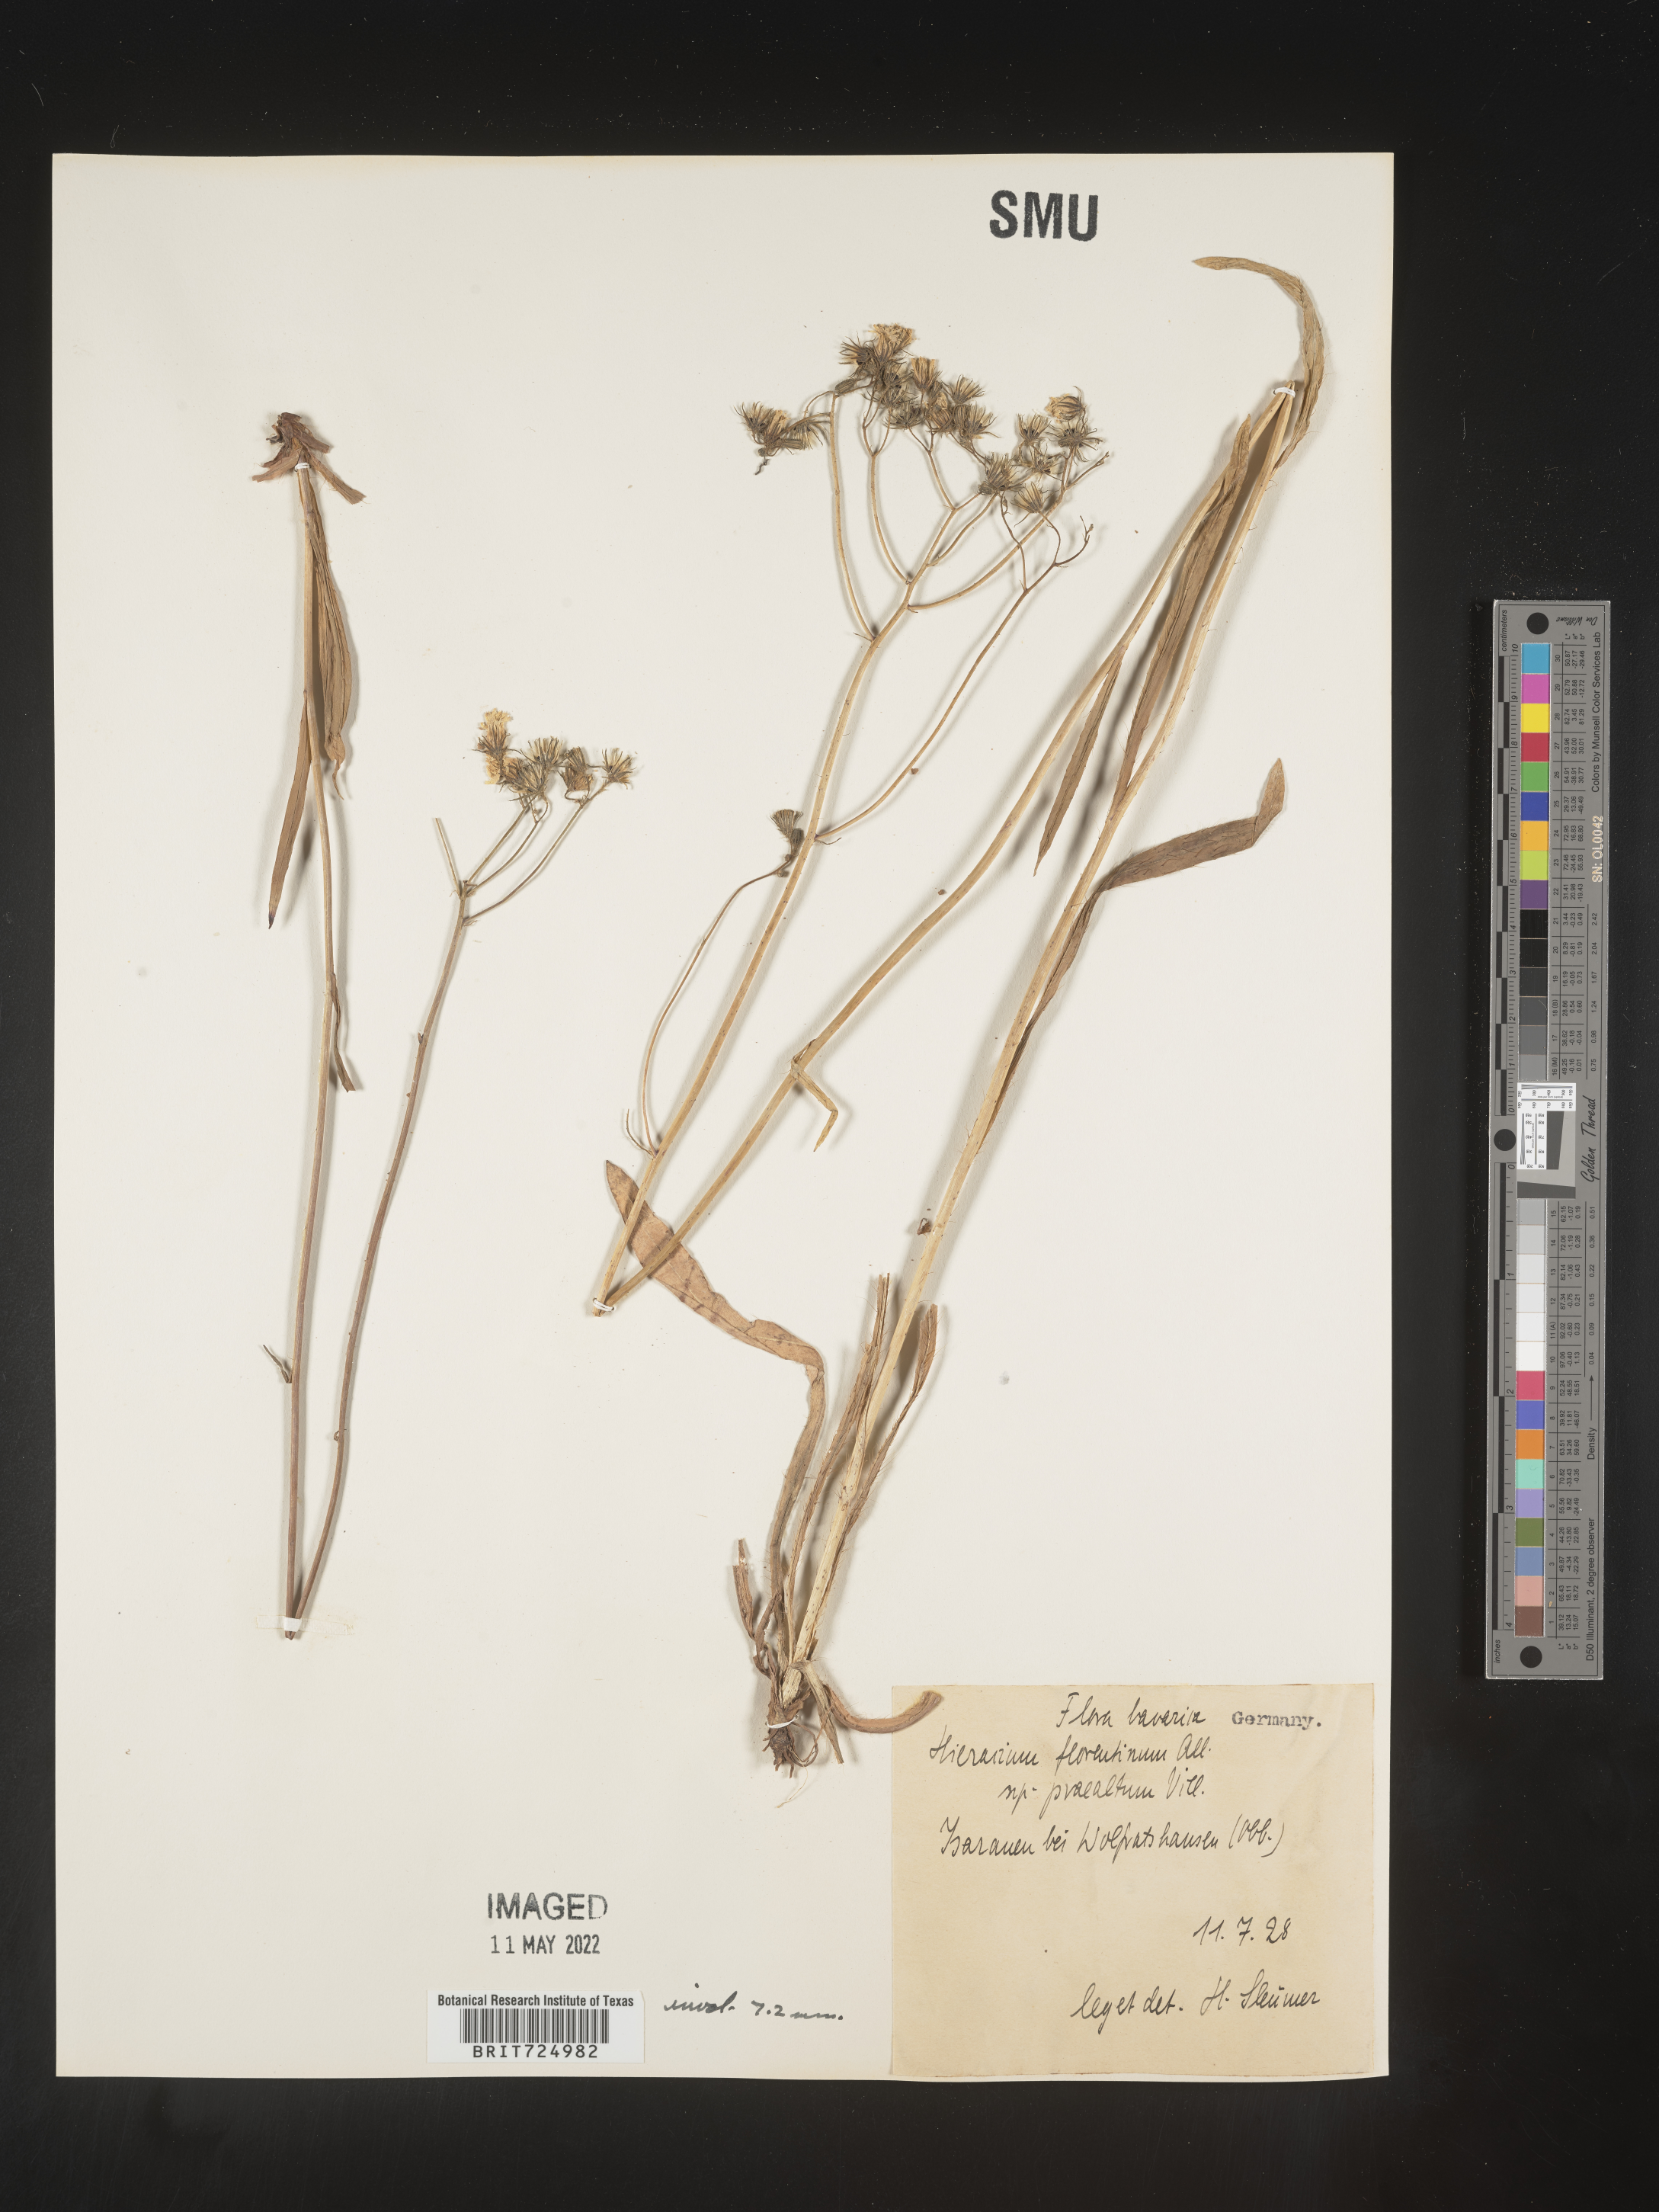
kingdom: Plantae
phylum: Tracheophyta
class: Magnoliopsida
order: Asterales
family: Asteraceae
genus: Hieracium
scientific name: Hieracium
